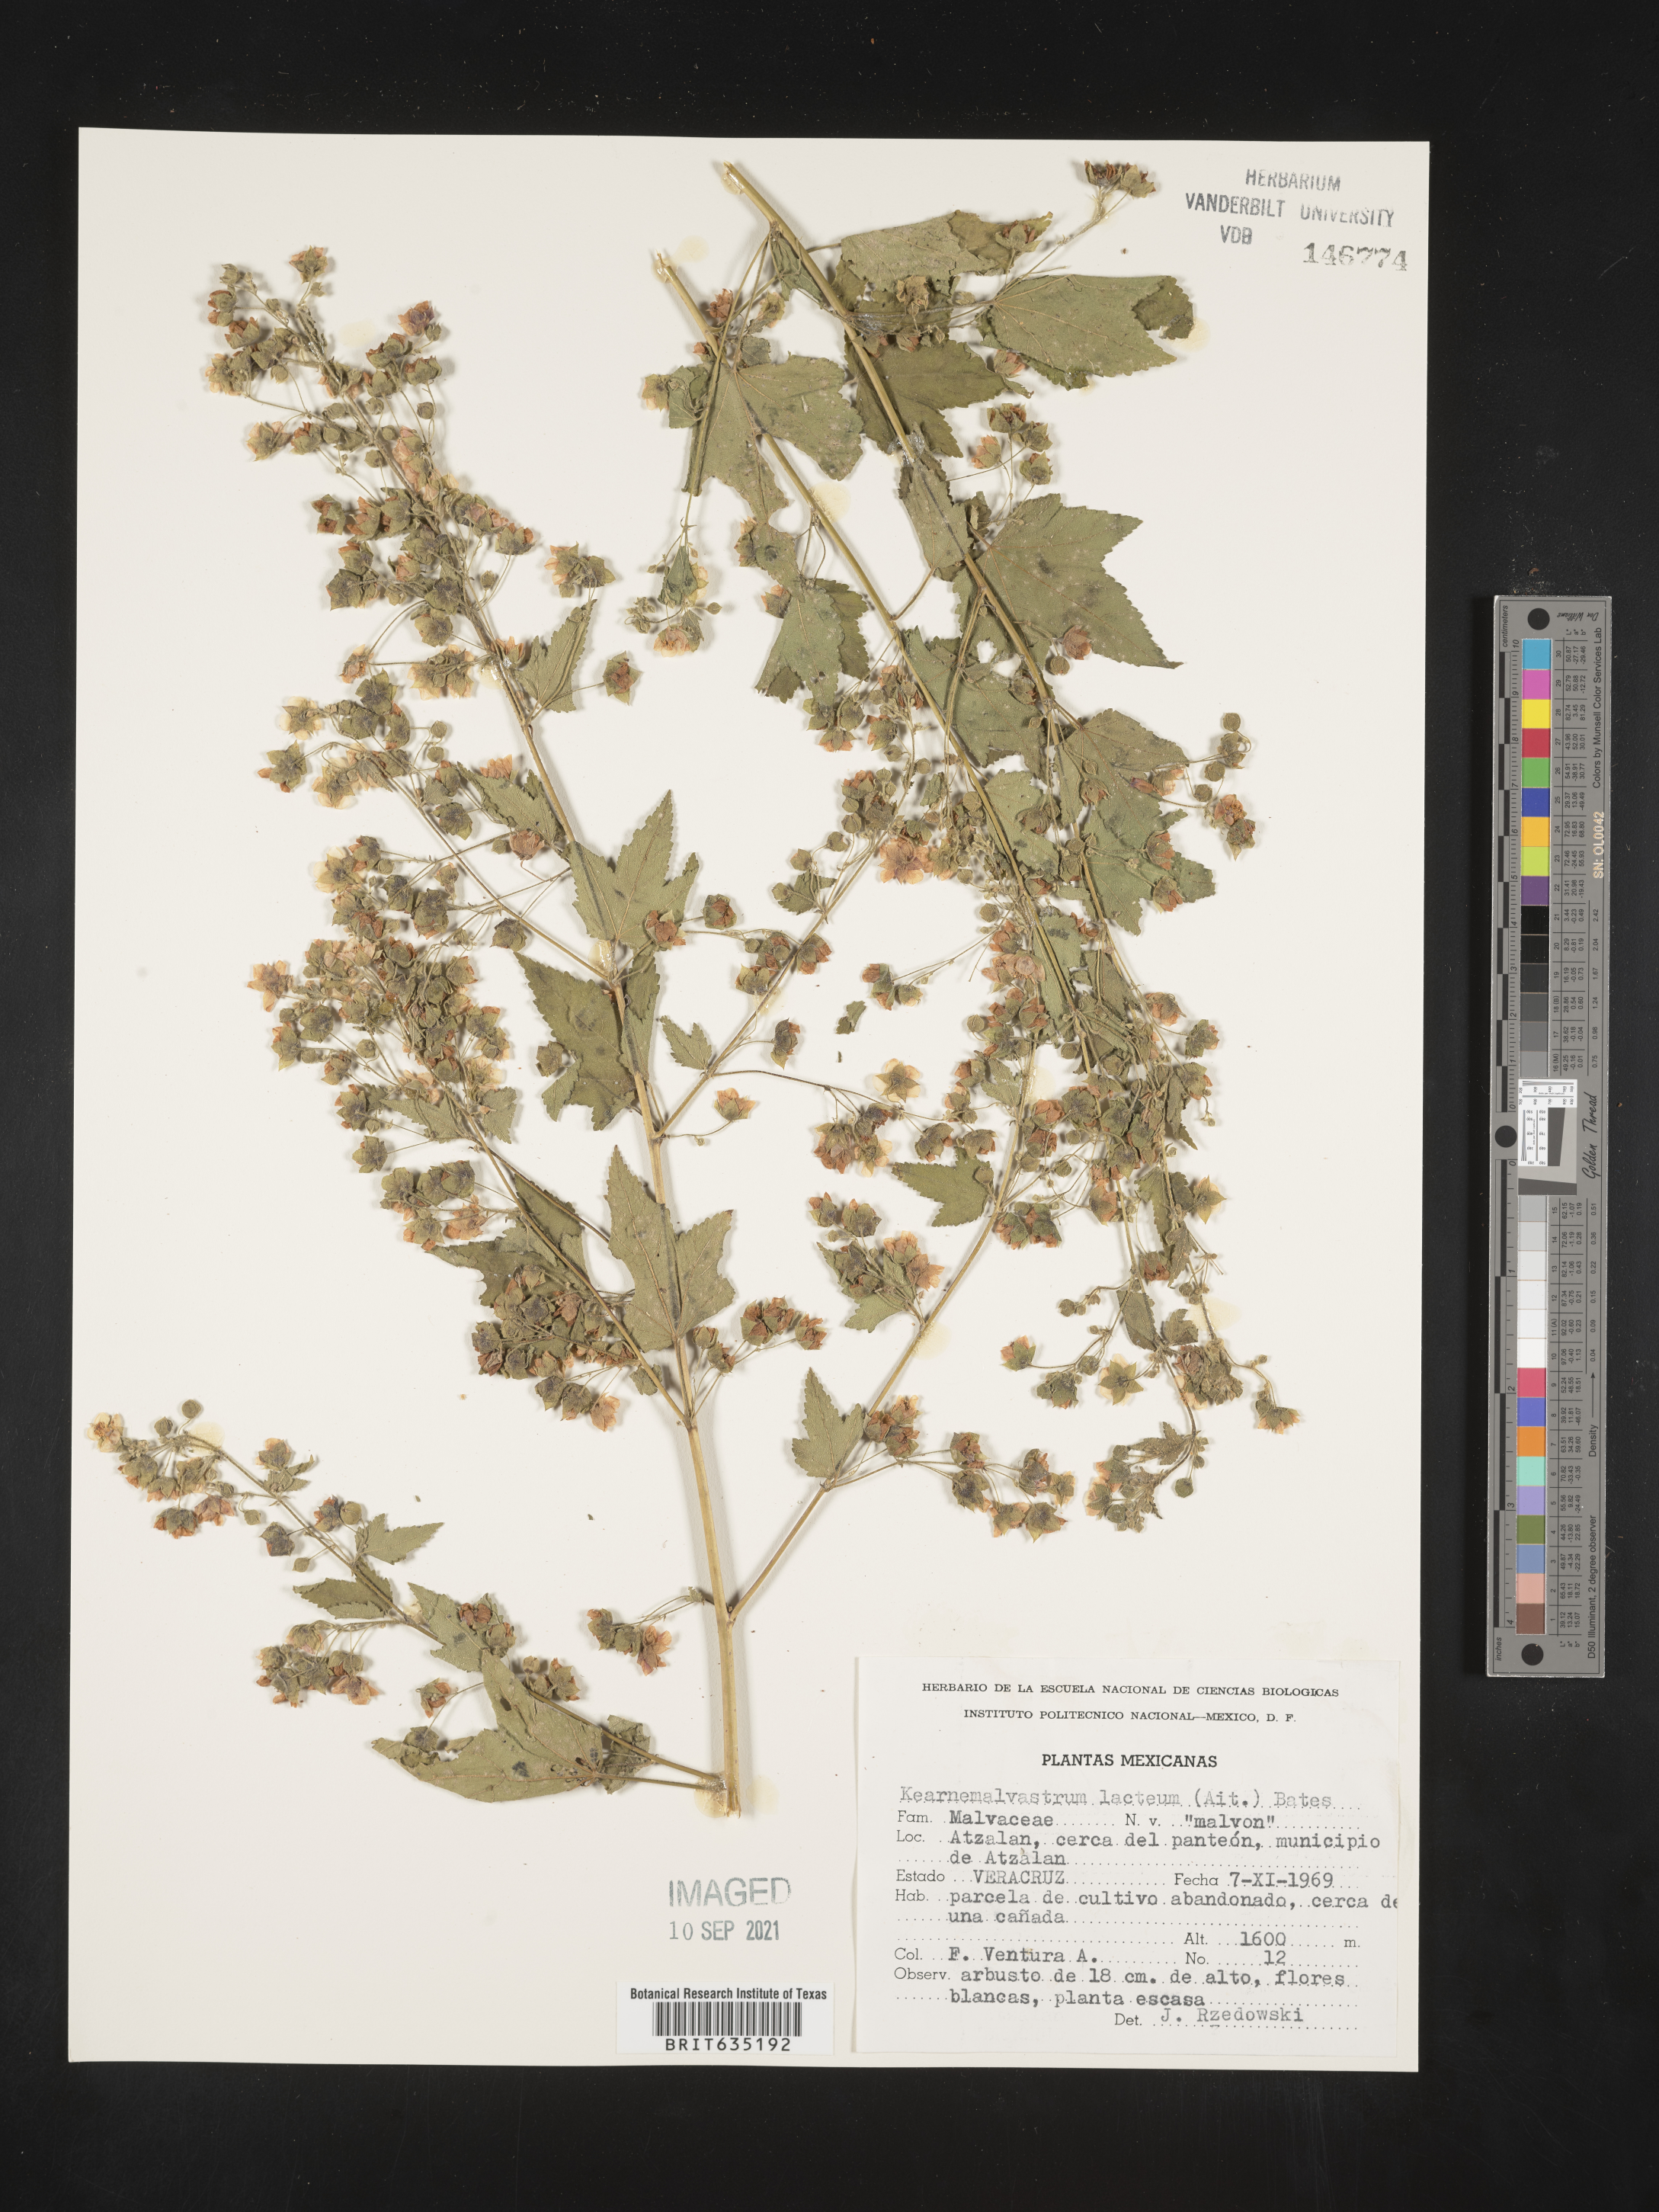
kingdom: Plantae
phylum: Tracheophyta
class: Magnoliopsida
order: Malvales
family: Malvaceae
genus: Kearnemalvastrum
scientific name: Kearnemalvastrum
